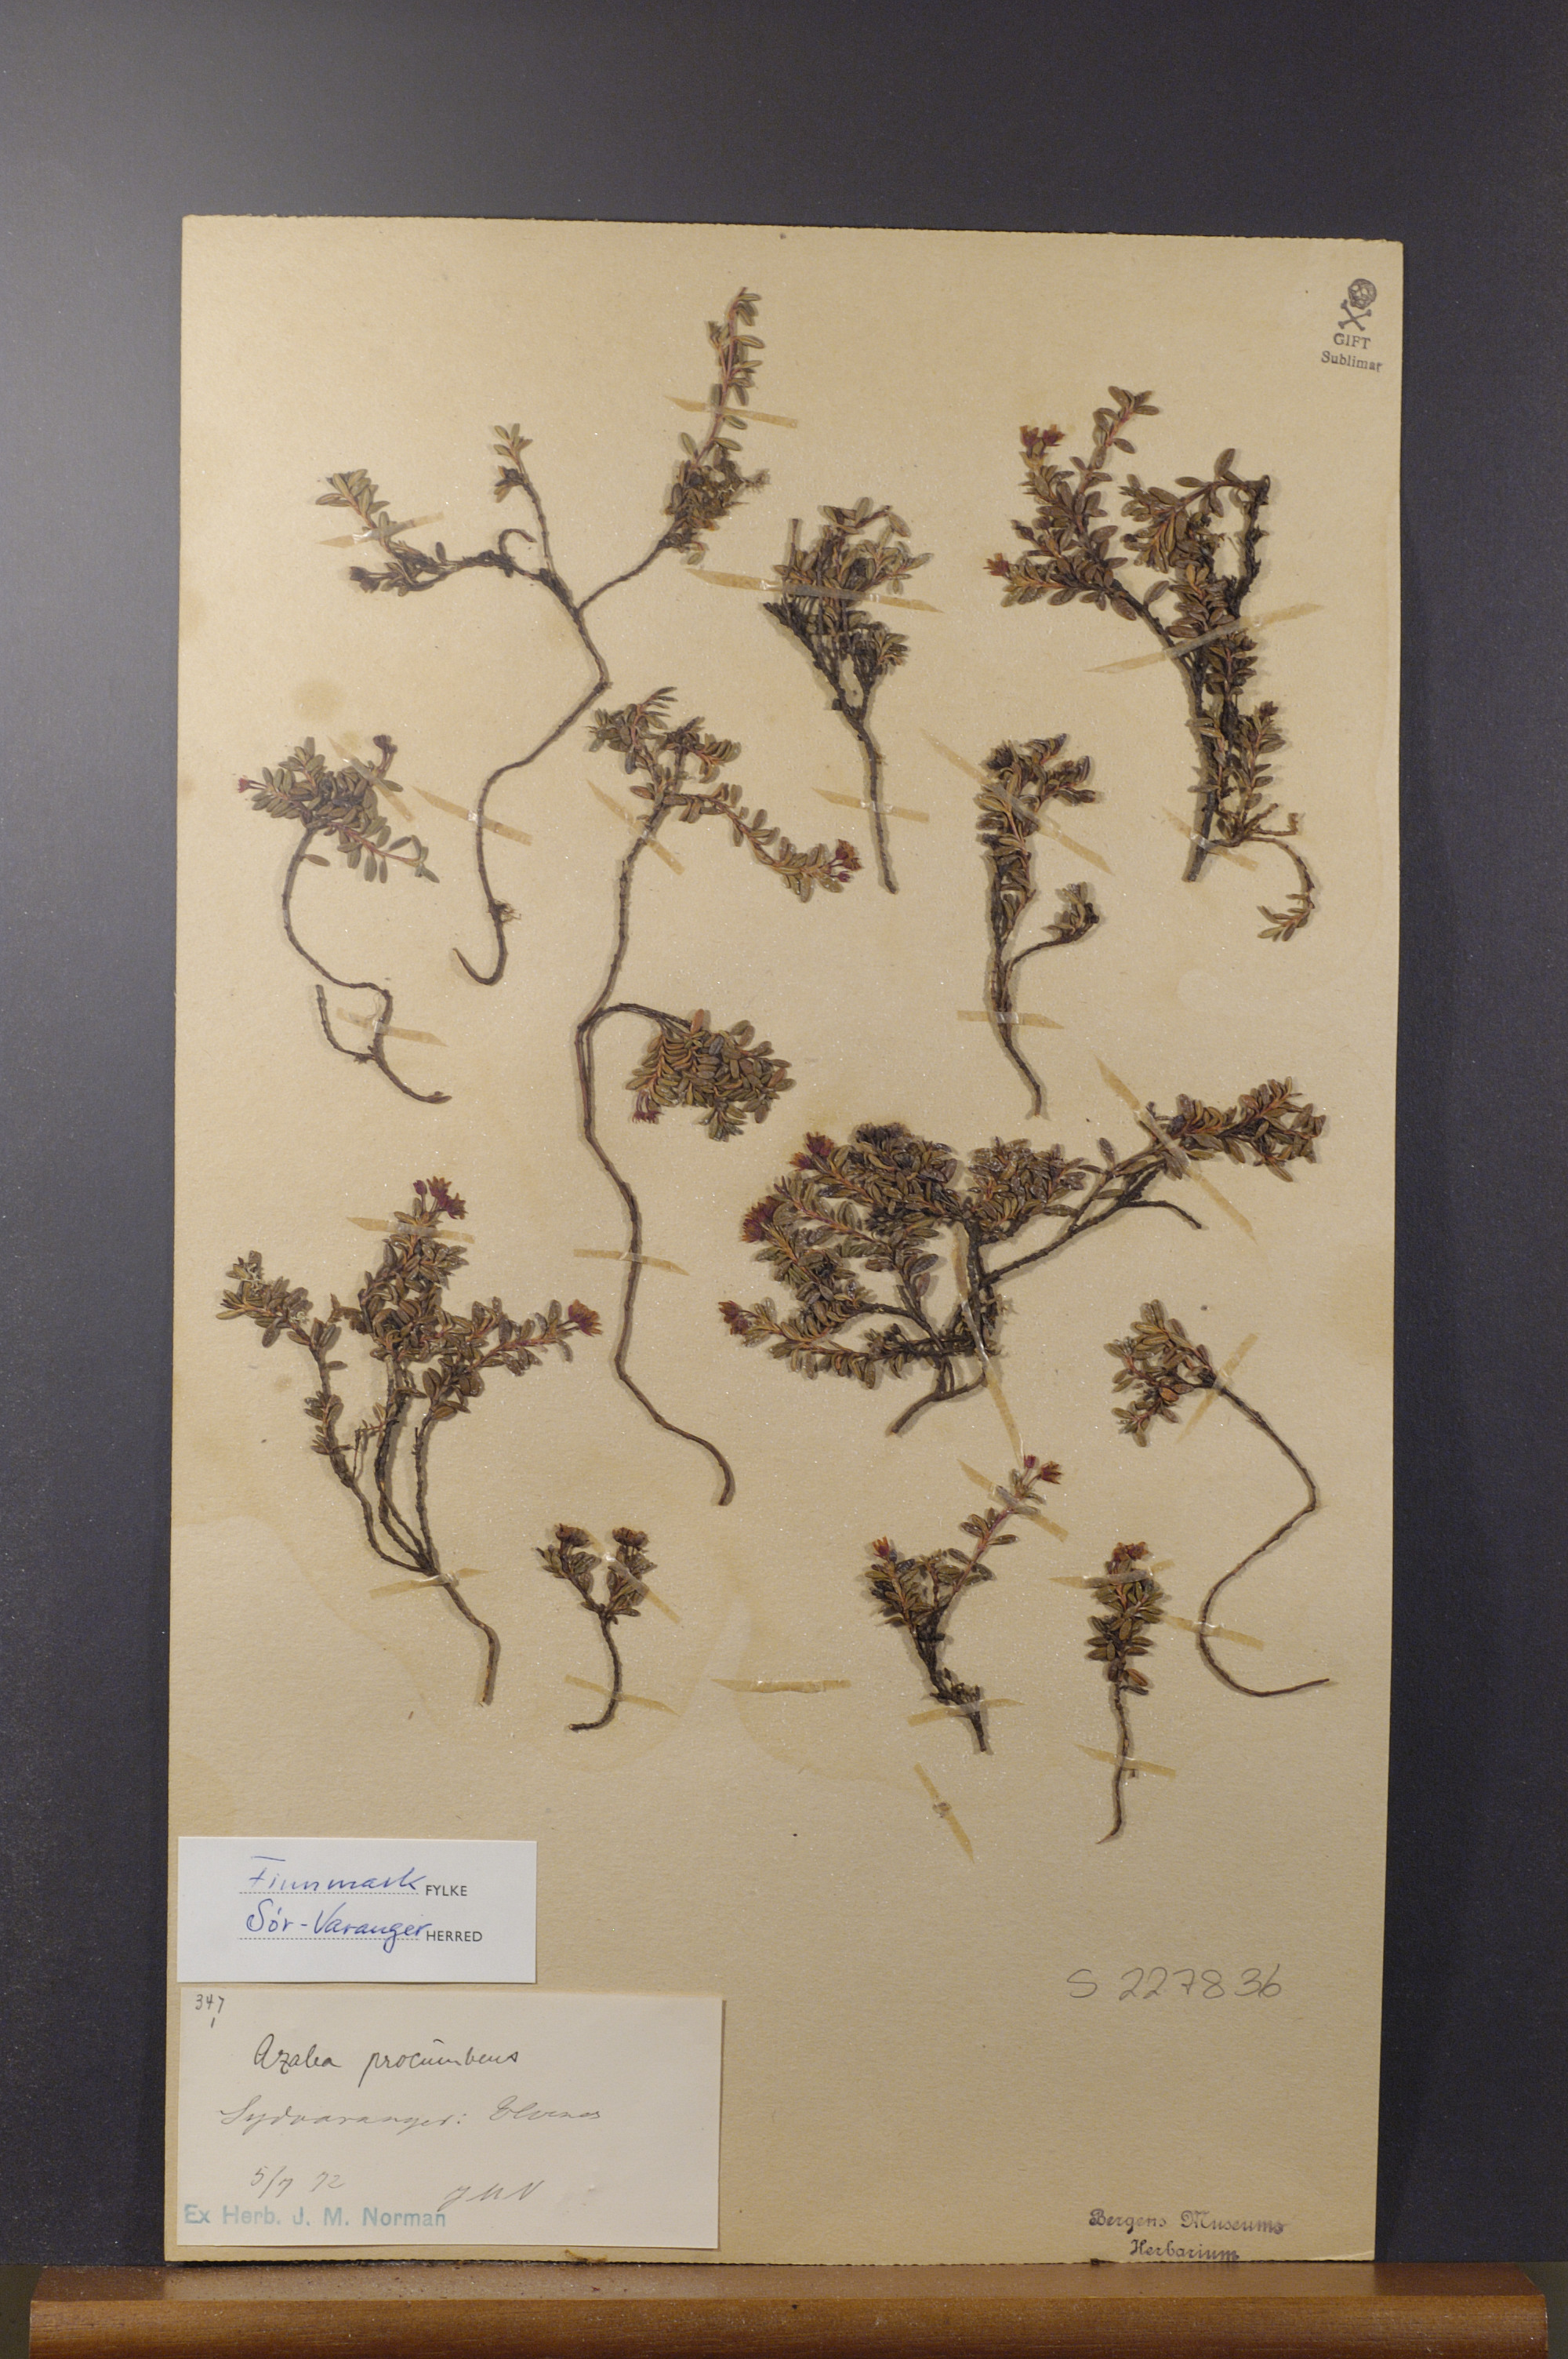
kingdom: Plantae
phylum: Tracheophyta
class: Magnoliopsida
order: Ericales
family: Ericaceae
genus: Kalmia
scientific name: Kalmia procumbens
